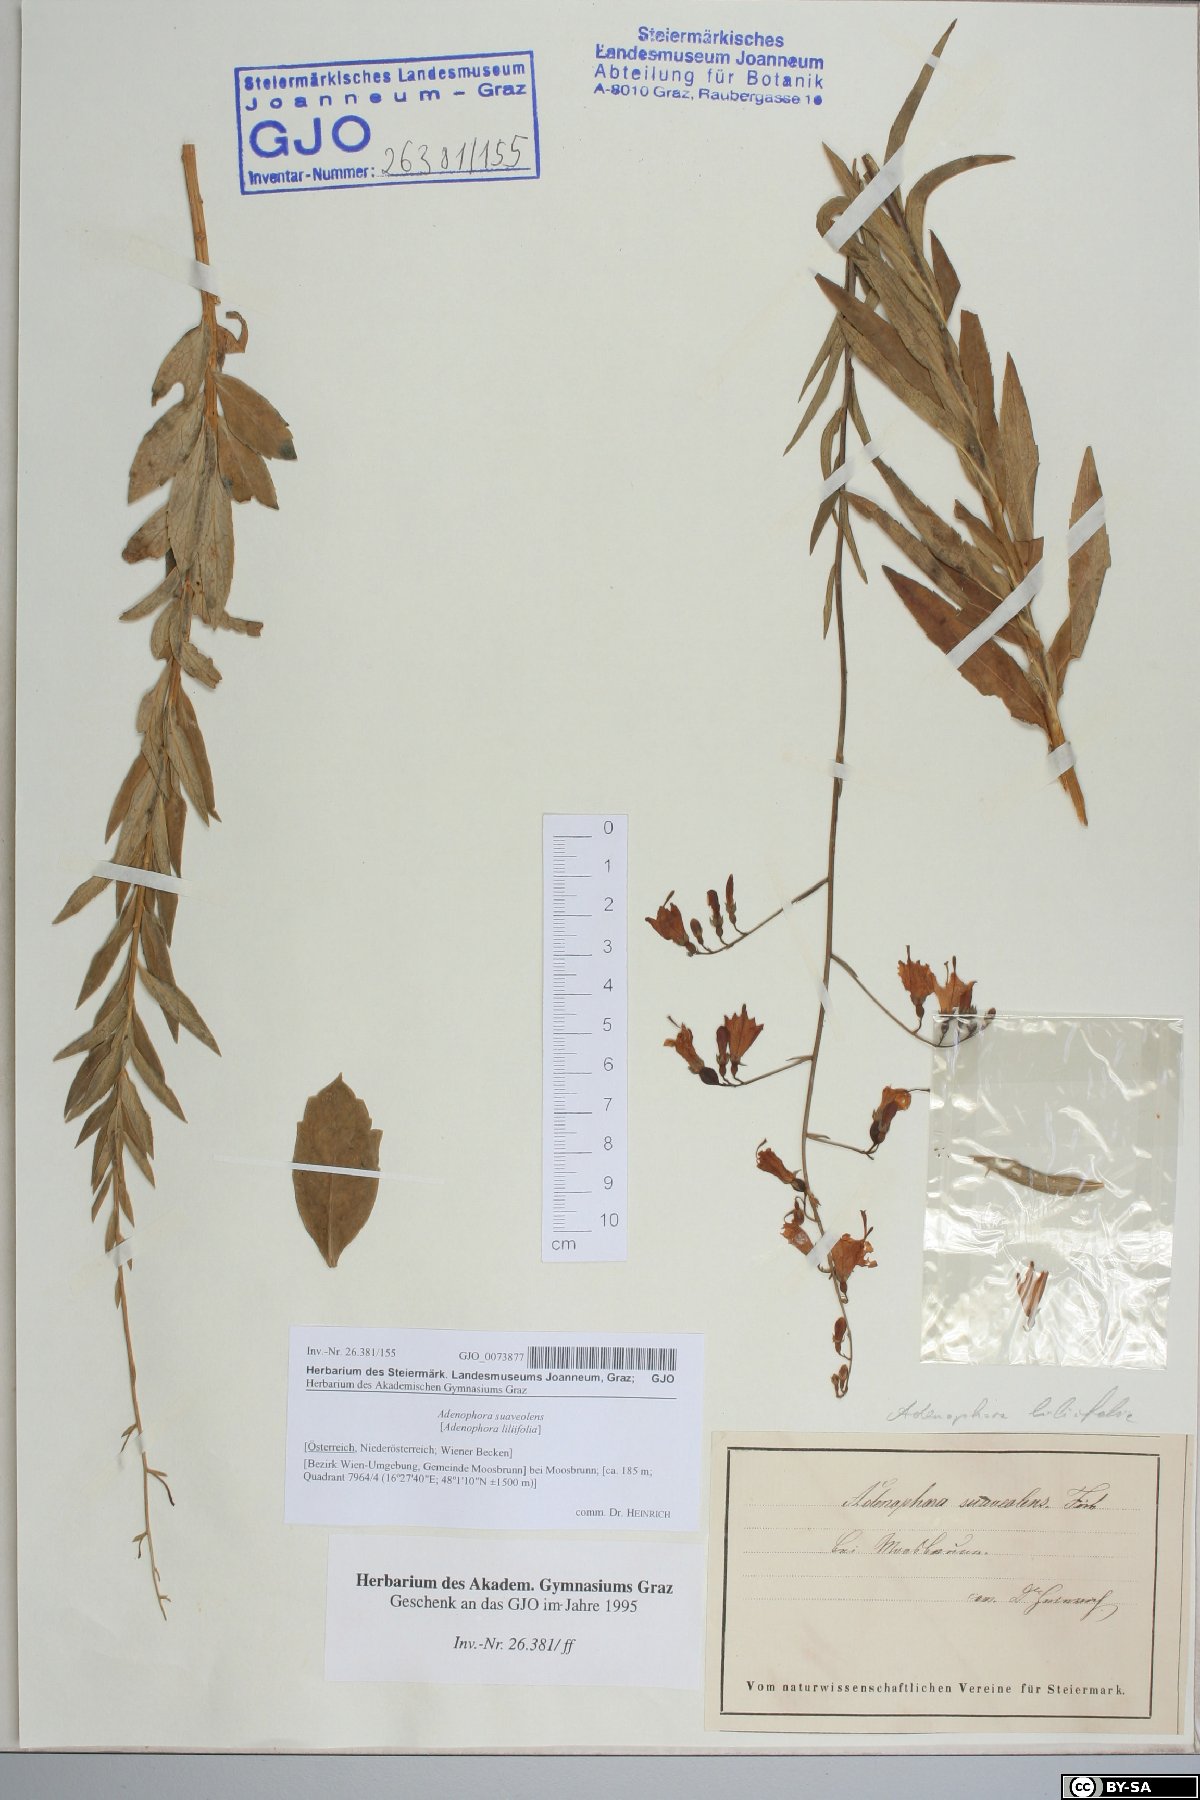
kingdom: Plantae
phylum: Tracheophyta
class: Magnoliopsida
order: Asterales
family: Campanulaceae
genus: Adenophora
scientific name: Adenophora liliifolia
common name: Lilyleaf ladybells
